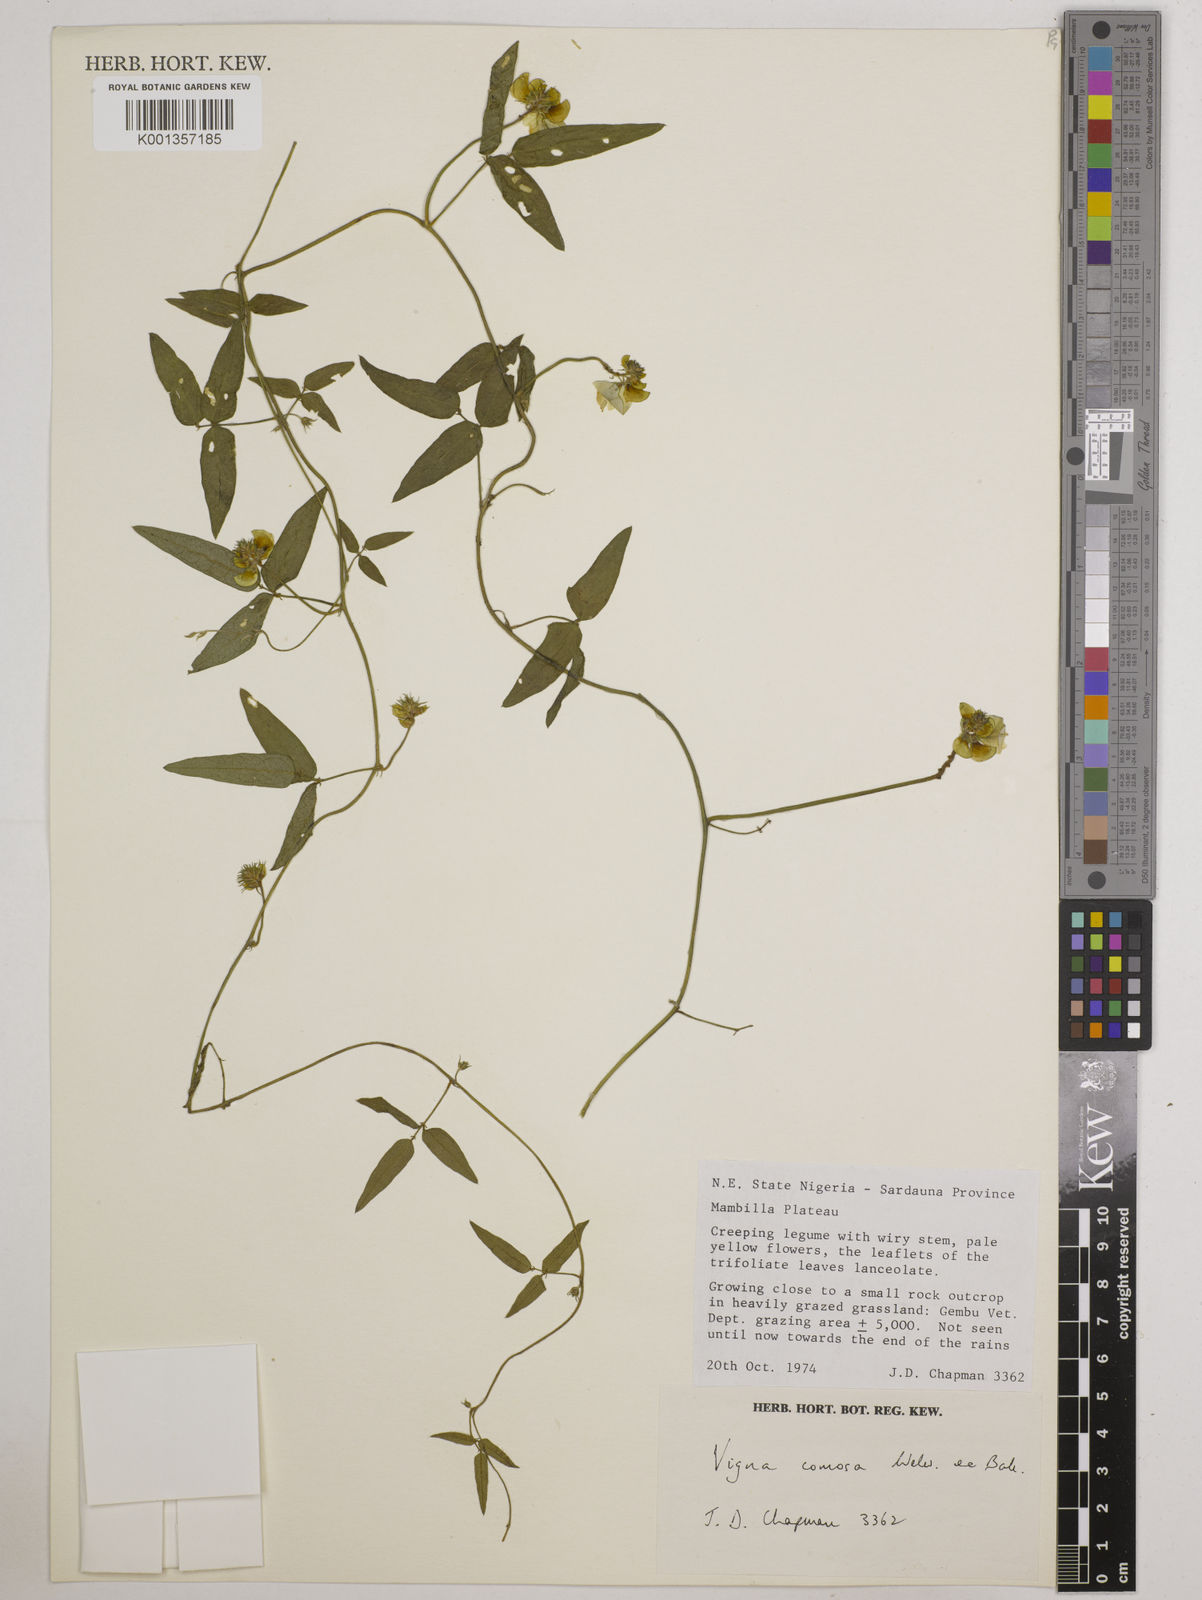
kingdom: Plantae
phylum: Tracheophyta
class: Magnoliopsida
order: Fabales
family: Fabaceae
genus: Vigna
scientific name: Vigna comosa
